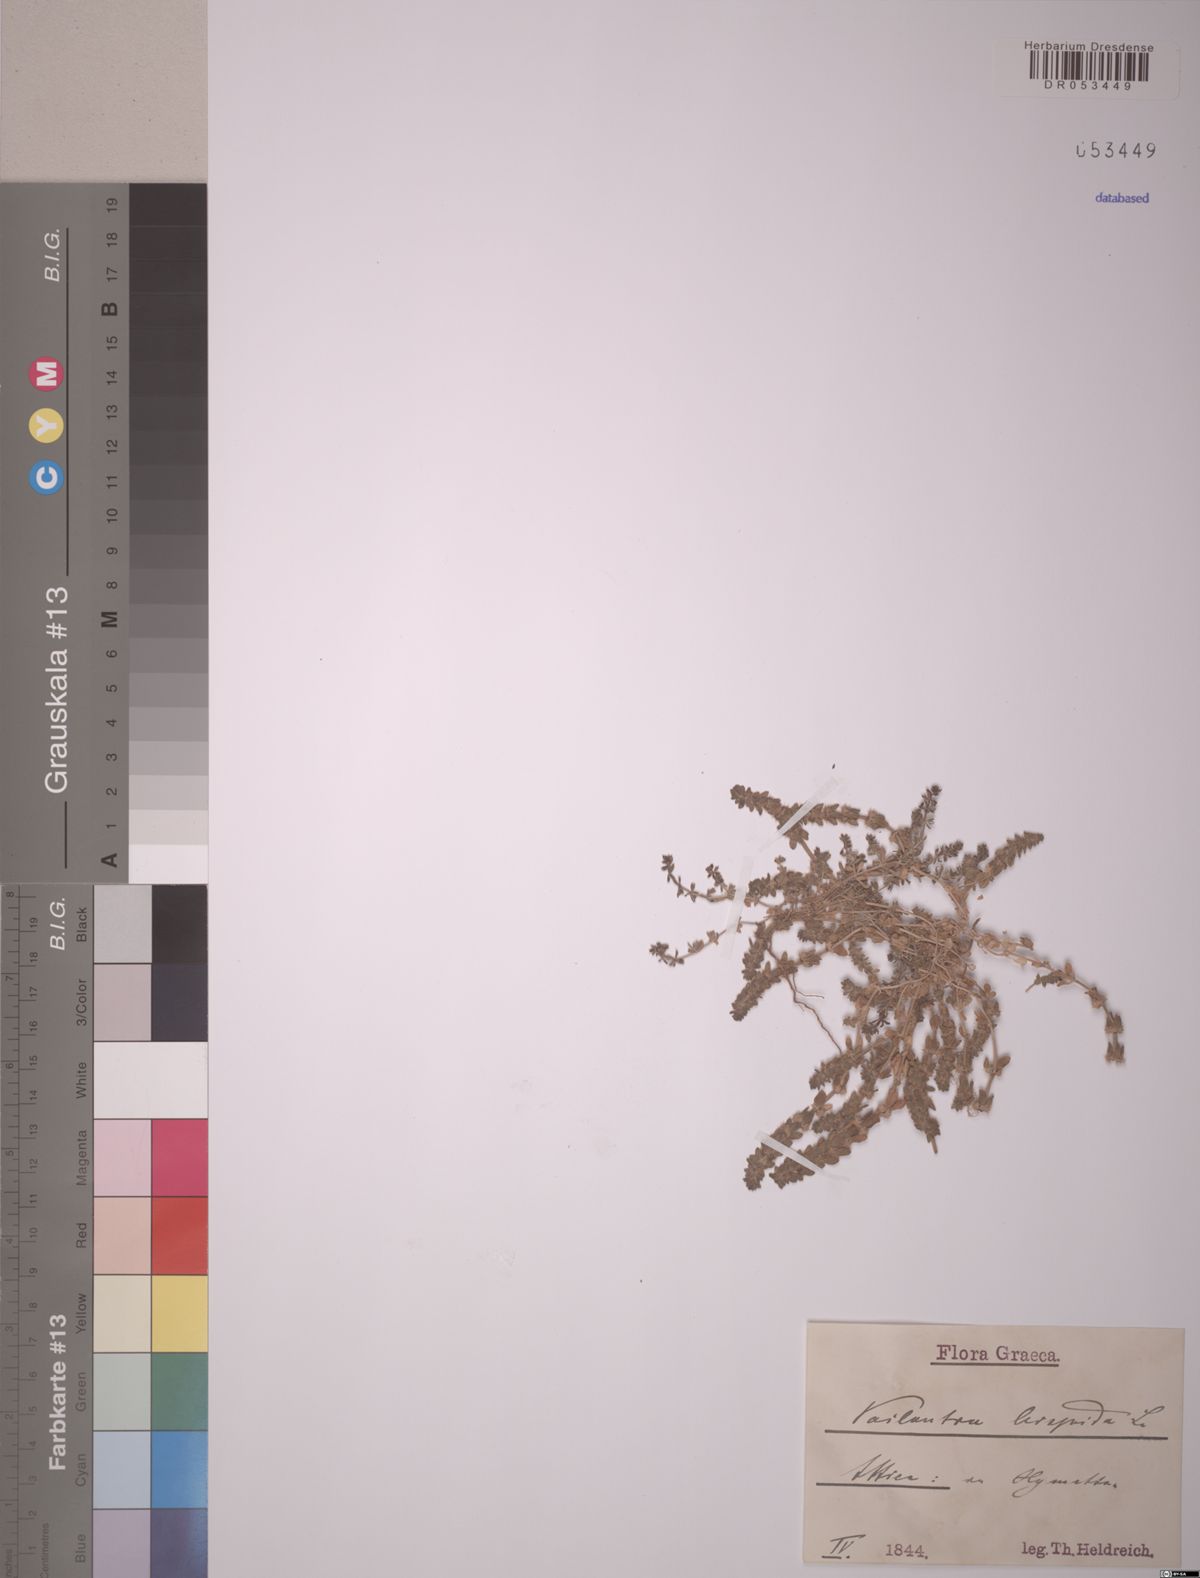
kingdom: Plantae
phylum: Tracheophyta
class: Magnoliopsida
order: Gentianales
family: Rubiaceae
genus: Valantia
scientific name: Valantia hispida
